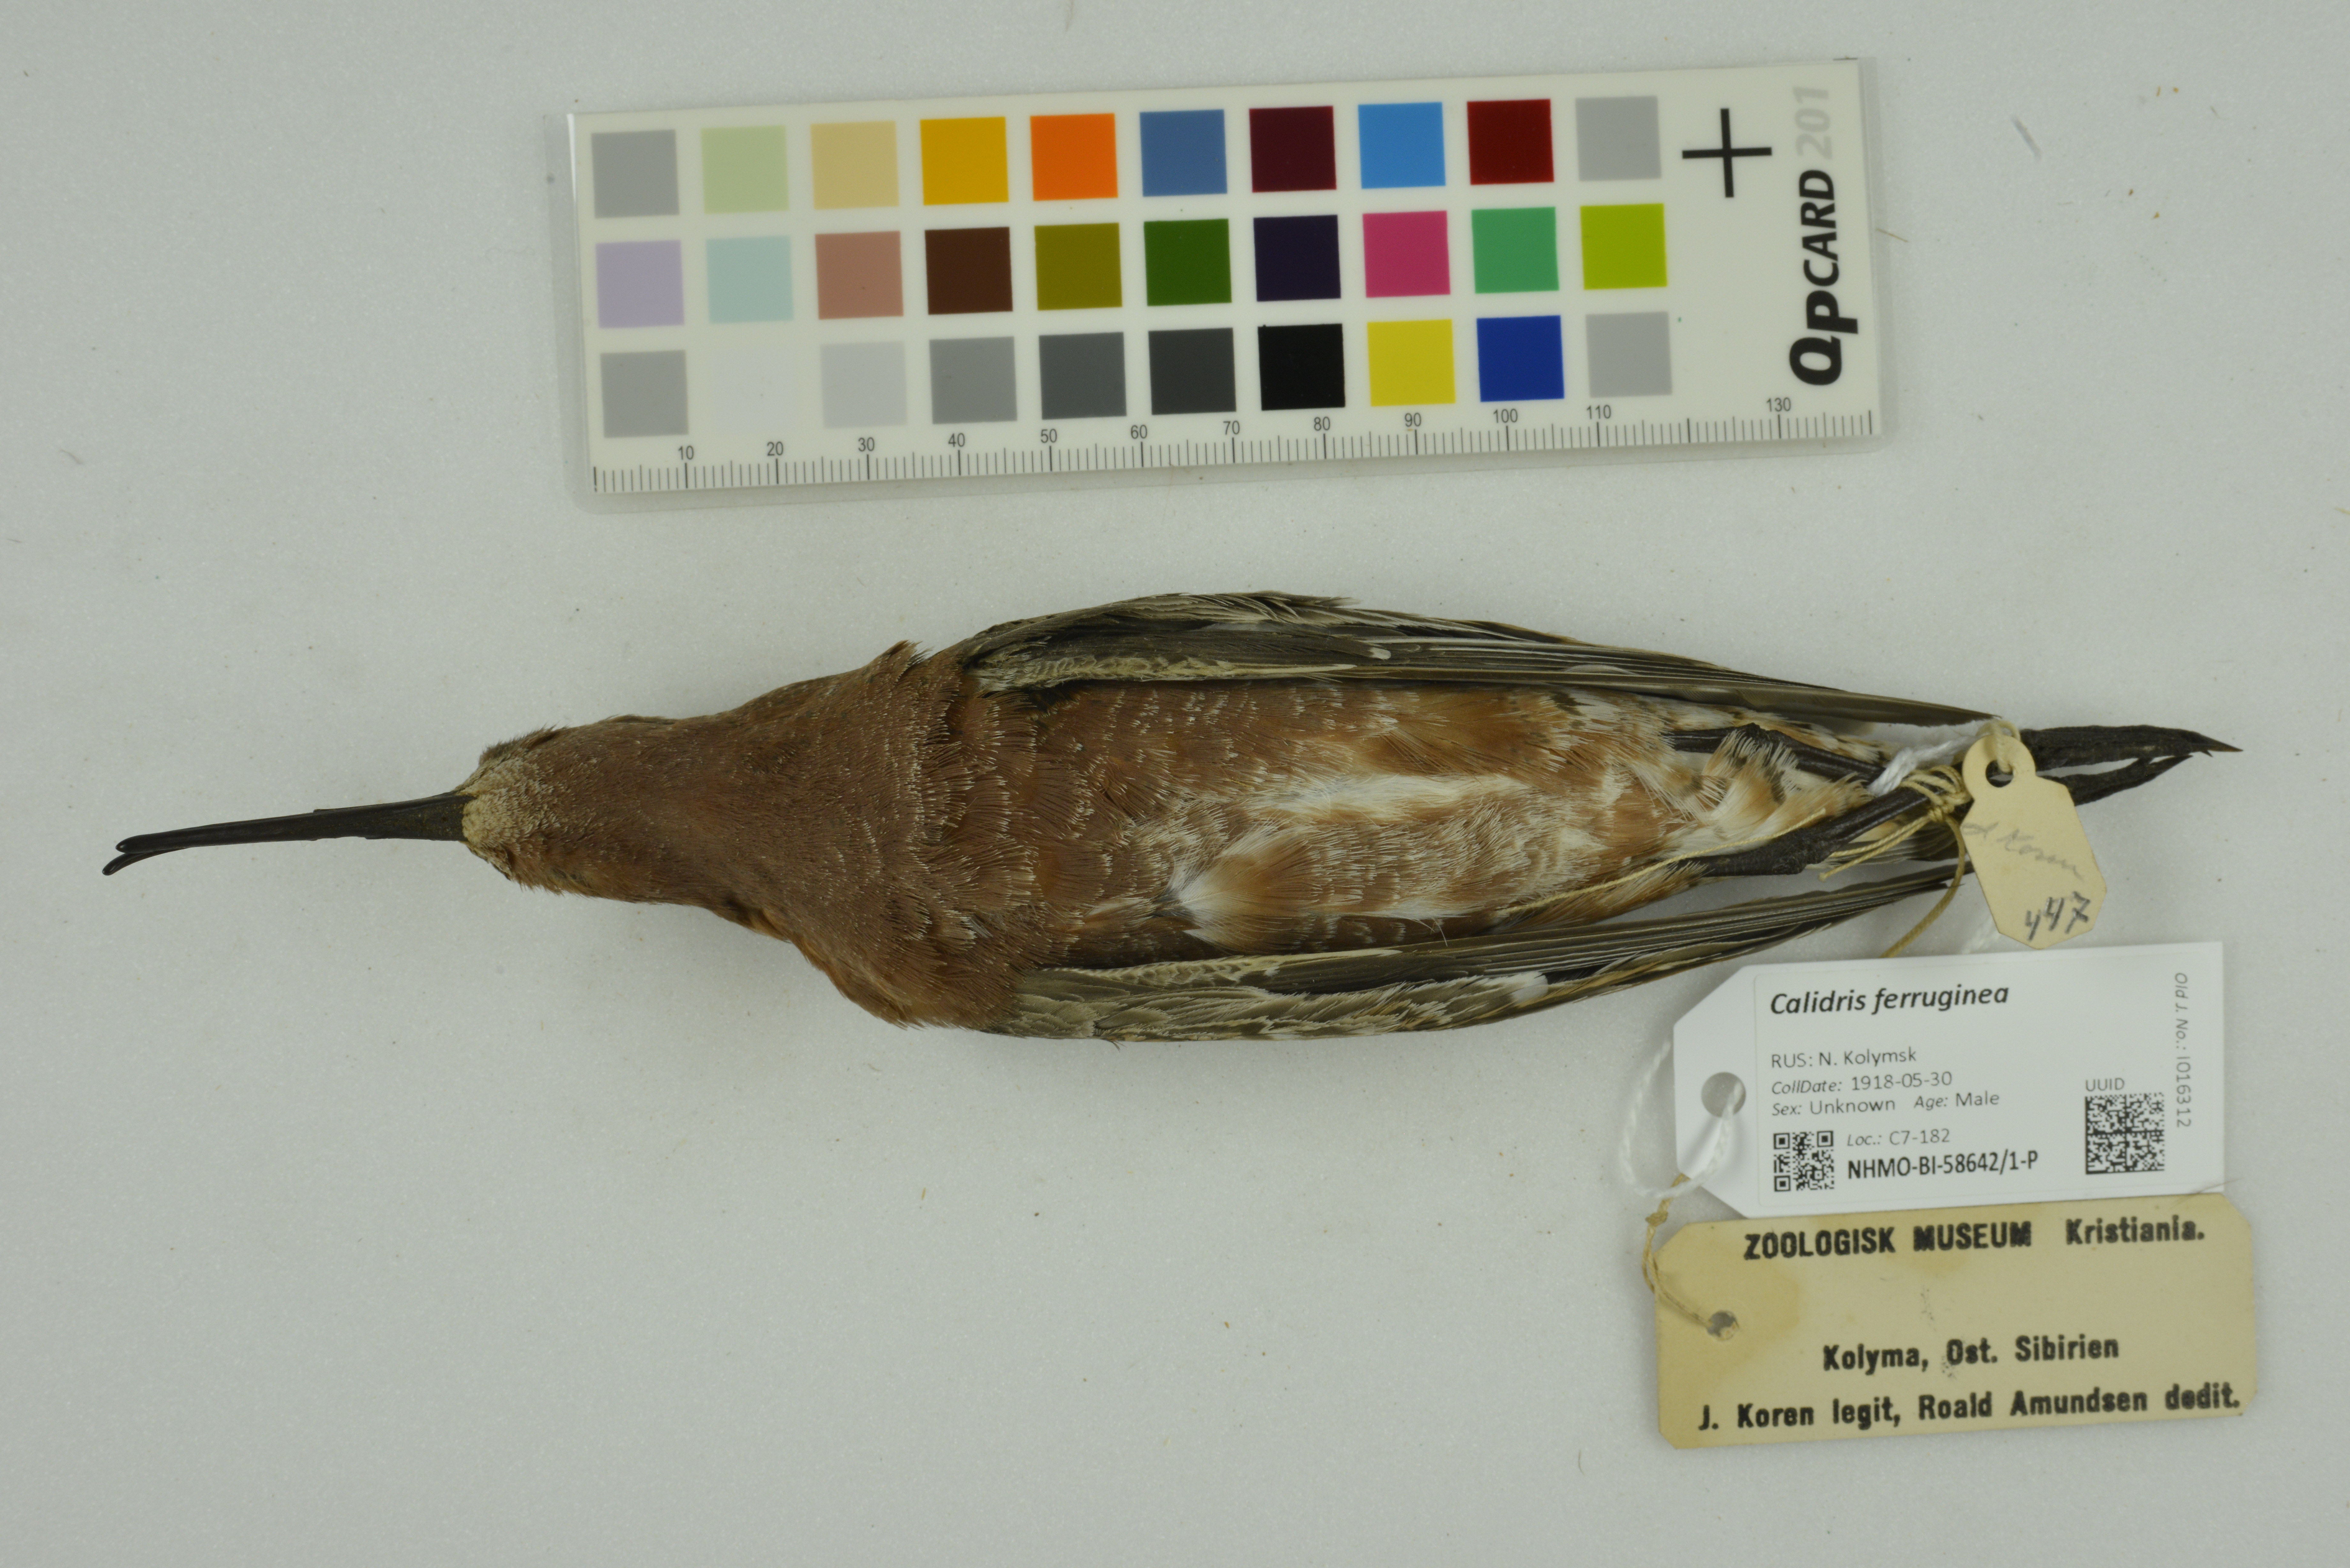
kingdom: Animalia
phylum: Chordata
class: Aves
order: Charadriiformes
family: Scolopacidae
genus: Calidris
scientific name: Calidris ferruginea
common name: Curlew sandpiper
